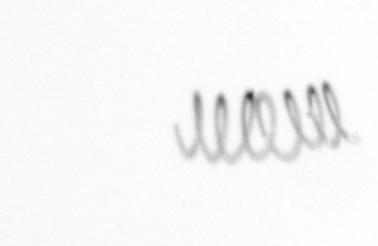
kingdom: Chromista
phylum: Ochrophyta
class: Bacillariophyceae
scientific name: Bacillariophyceae
